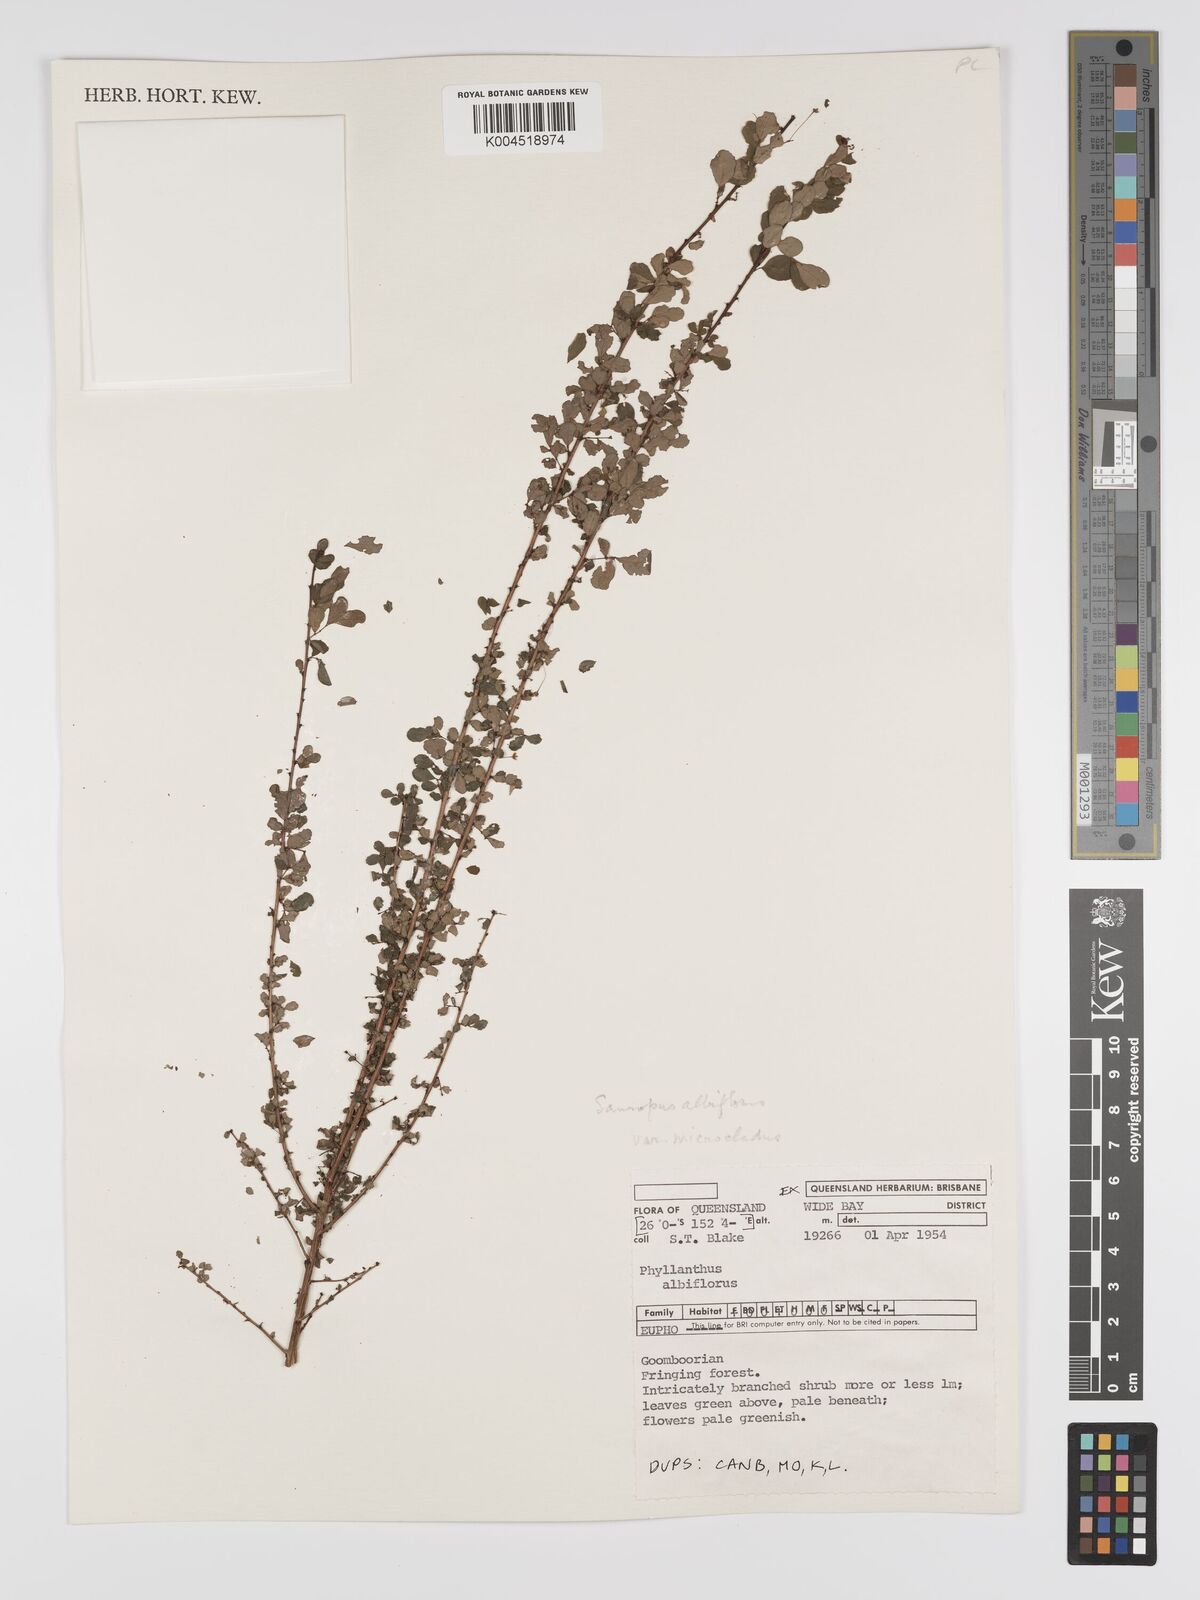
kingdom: Plantae
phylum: Tracheophyta
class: Magnoliopsida
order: Malpighiales
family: Phyllanthaceae
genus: Phyllanthus
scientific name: Phyllanthus microcladus
